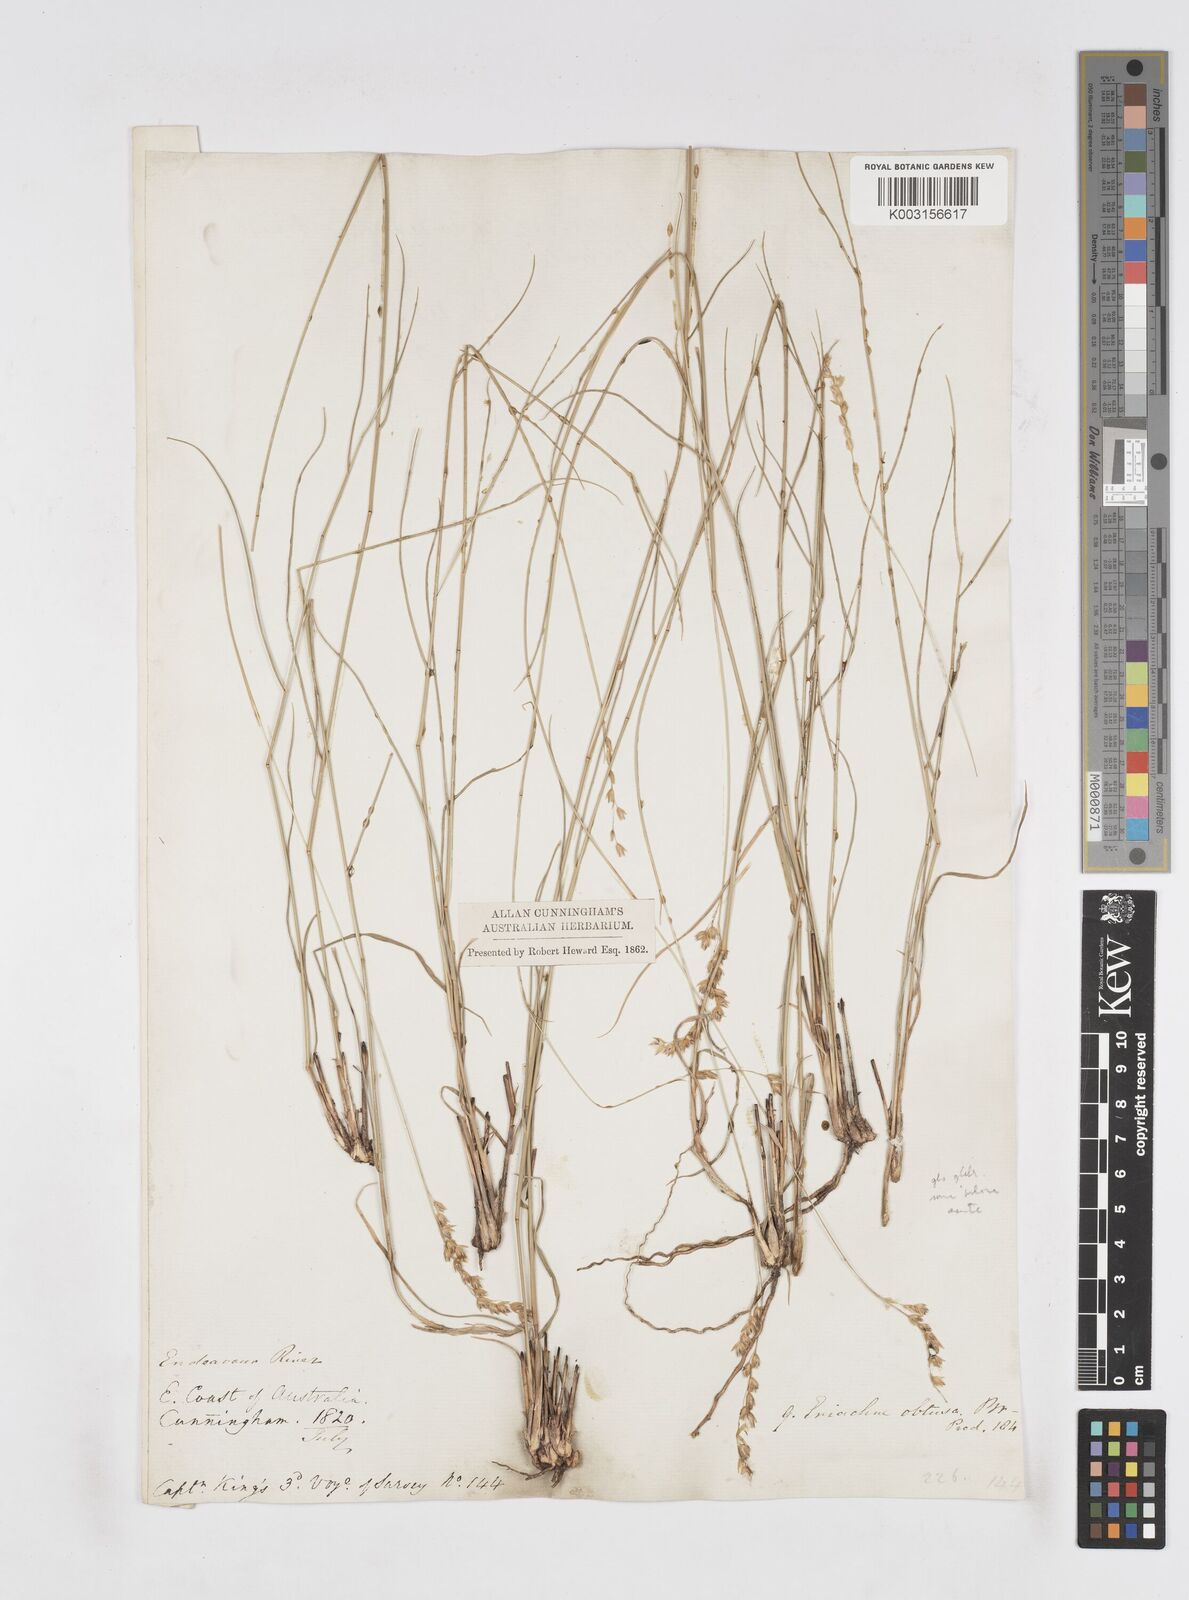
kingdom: Plantae
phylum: Tracheophyta
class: Liliopsida
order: Poales
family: Poaceae
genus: Eriachne
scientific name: Eriachne obtusa
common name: Northern wanderrie grass
